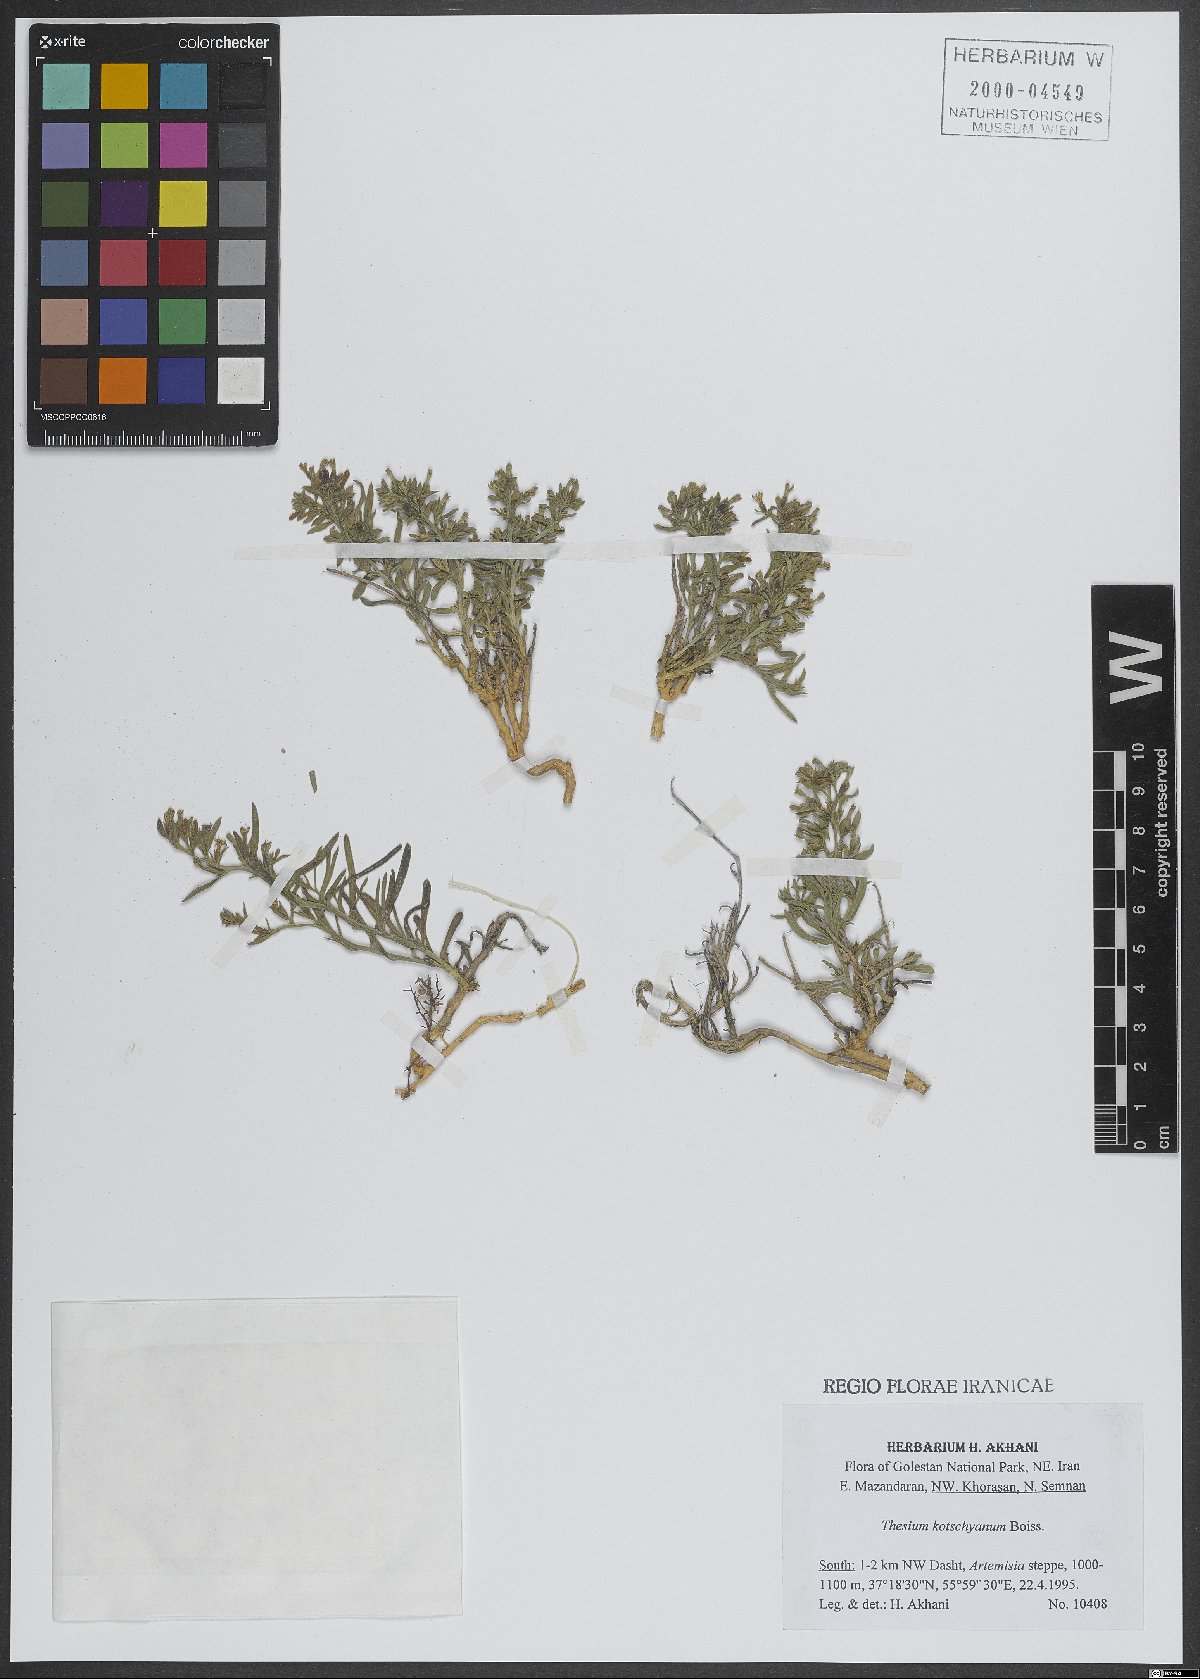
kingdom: Plantae
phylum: Tracheophyta
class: Magnoliopsida
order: Santalales
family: Thesiaceae
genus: Thesium
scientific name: Thesium kotschyanum
